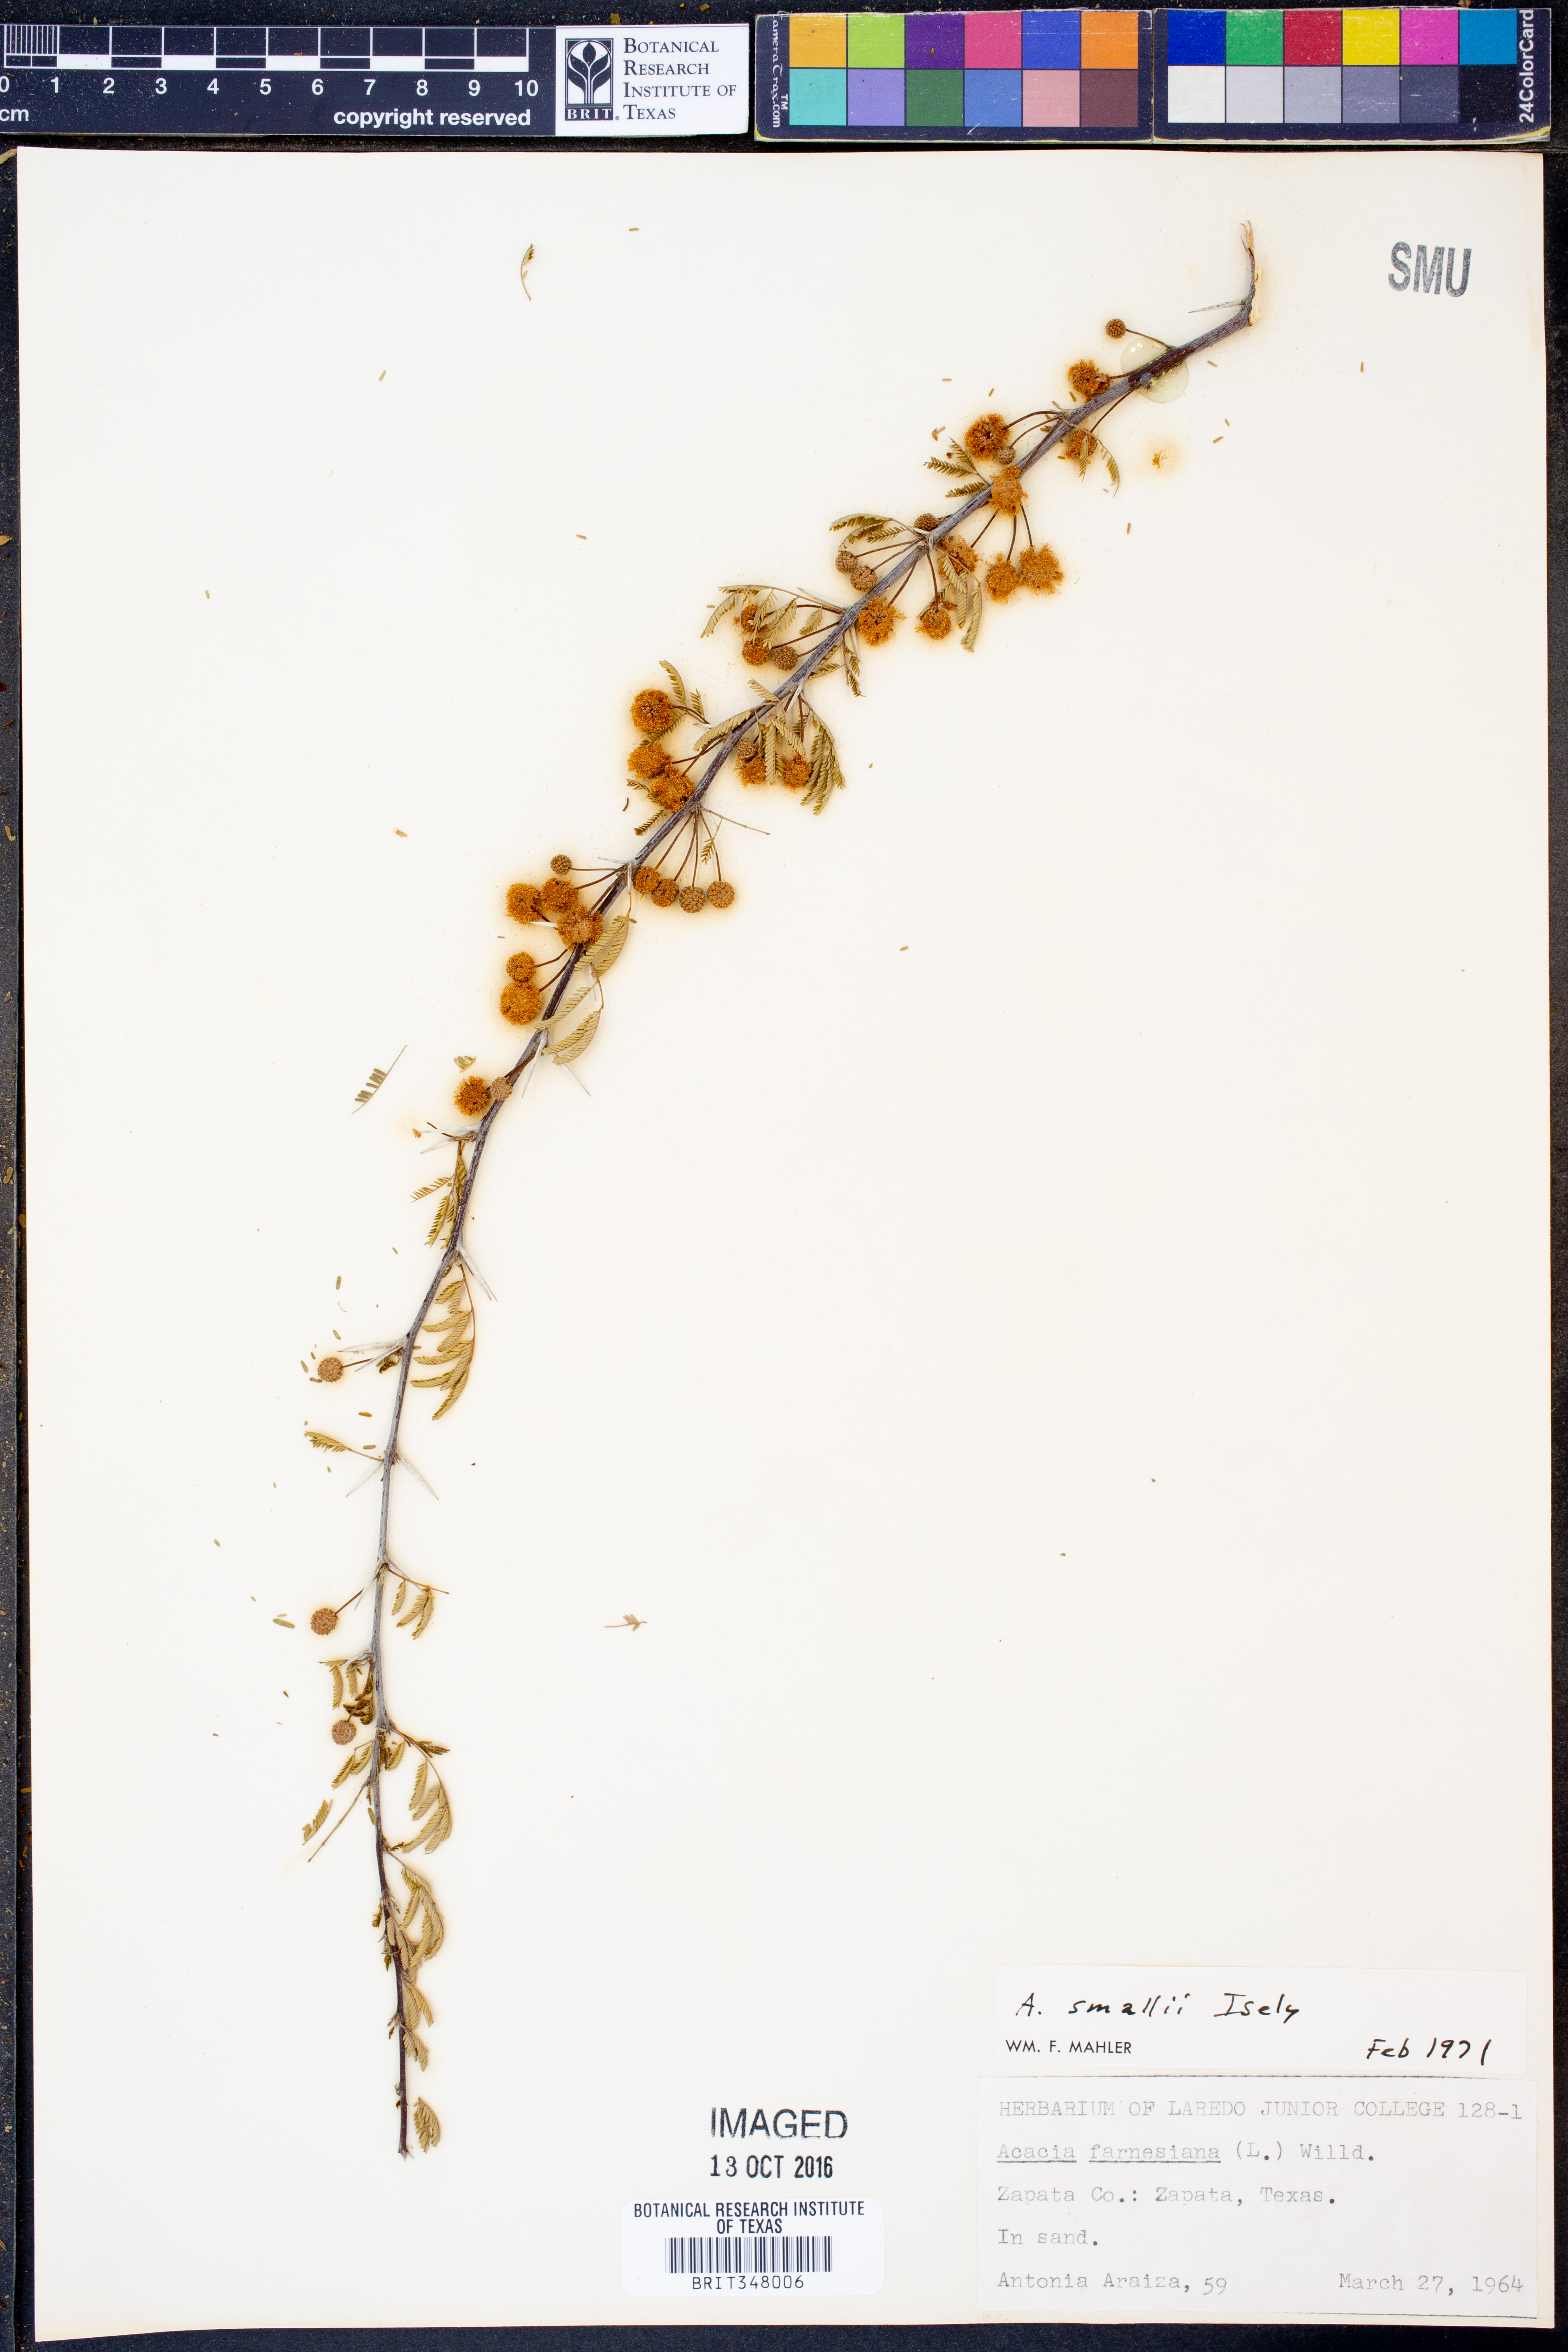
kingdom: Plantae
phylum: Tracheophyta
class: Magnoliopsida
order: Fabales
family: Fabaceae
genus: Vachellia
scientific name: Vachellia farnesiana
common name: Sweet acacia
